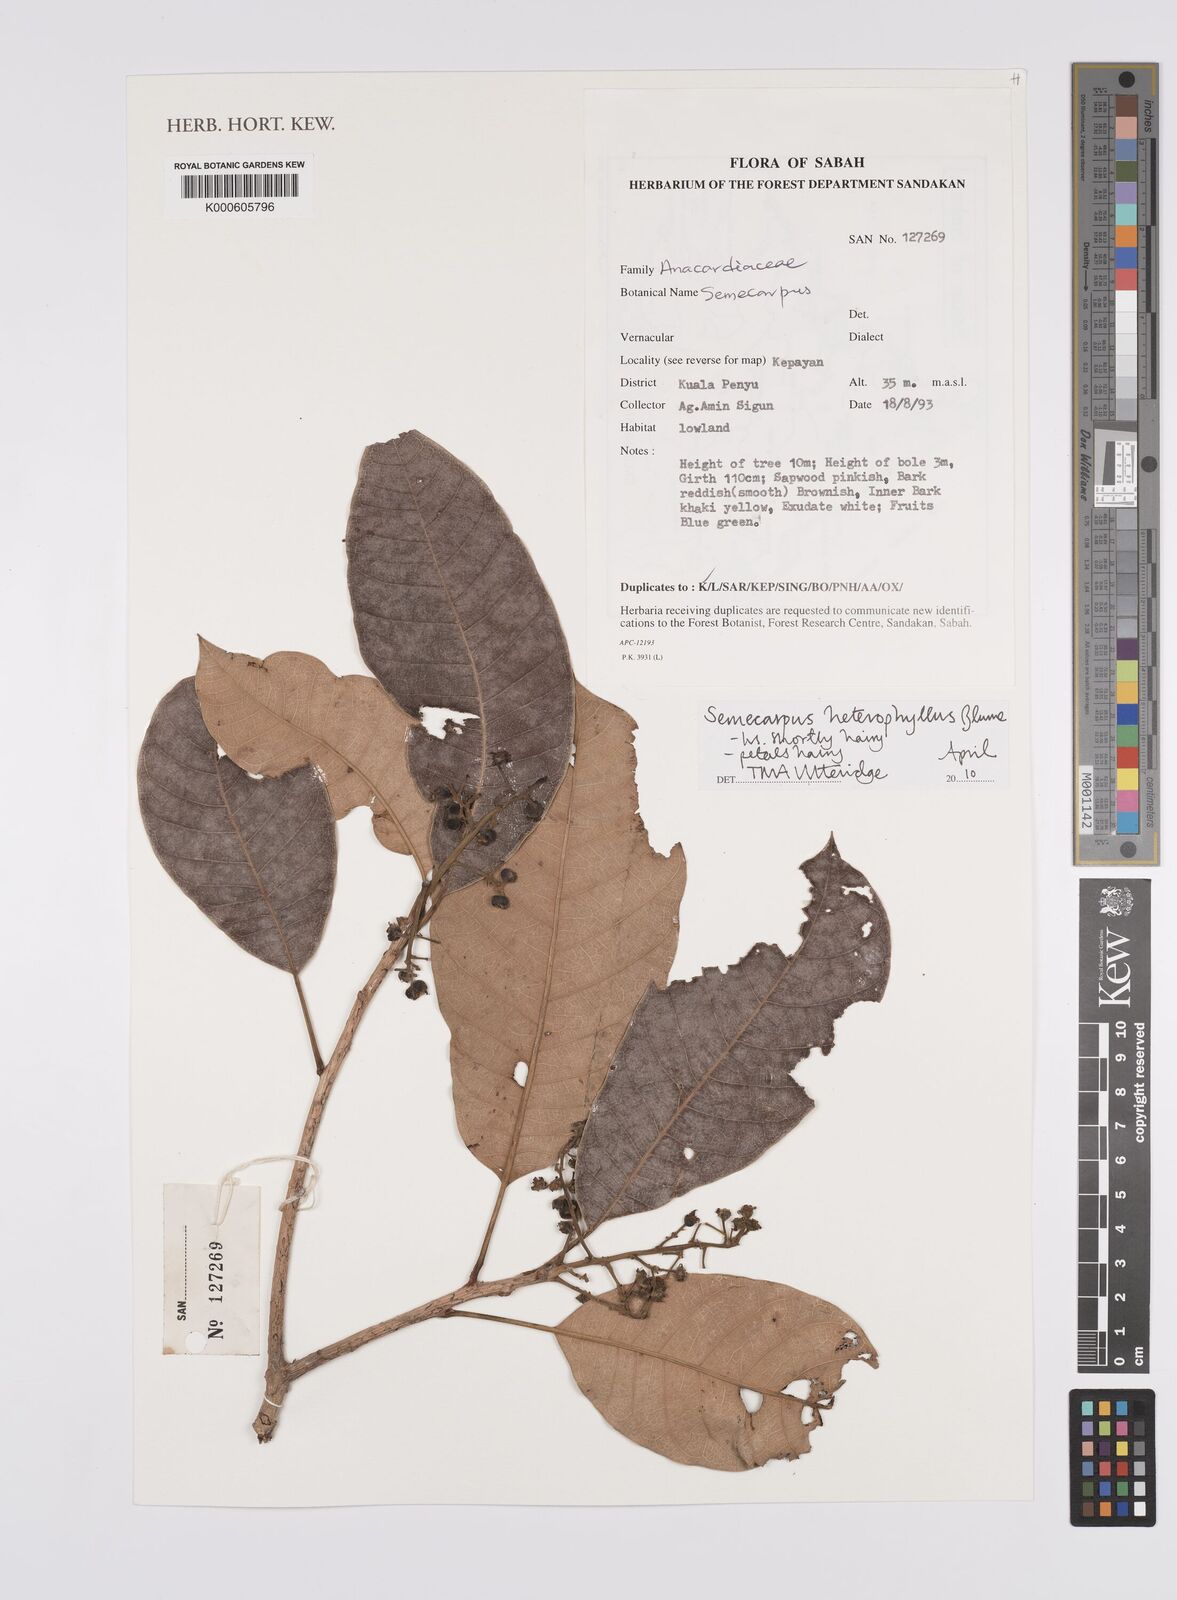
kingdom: Plantae
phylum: Tracheophyta
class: Magnoliopsida
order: Sapindales
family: Anacardiaceae
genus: Semecarpus
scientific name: Semecarpus heterophyllus
